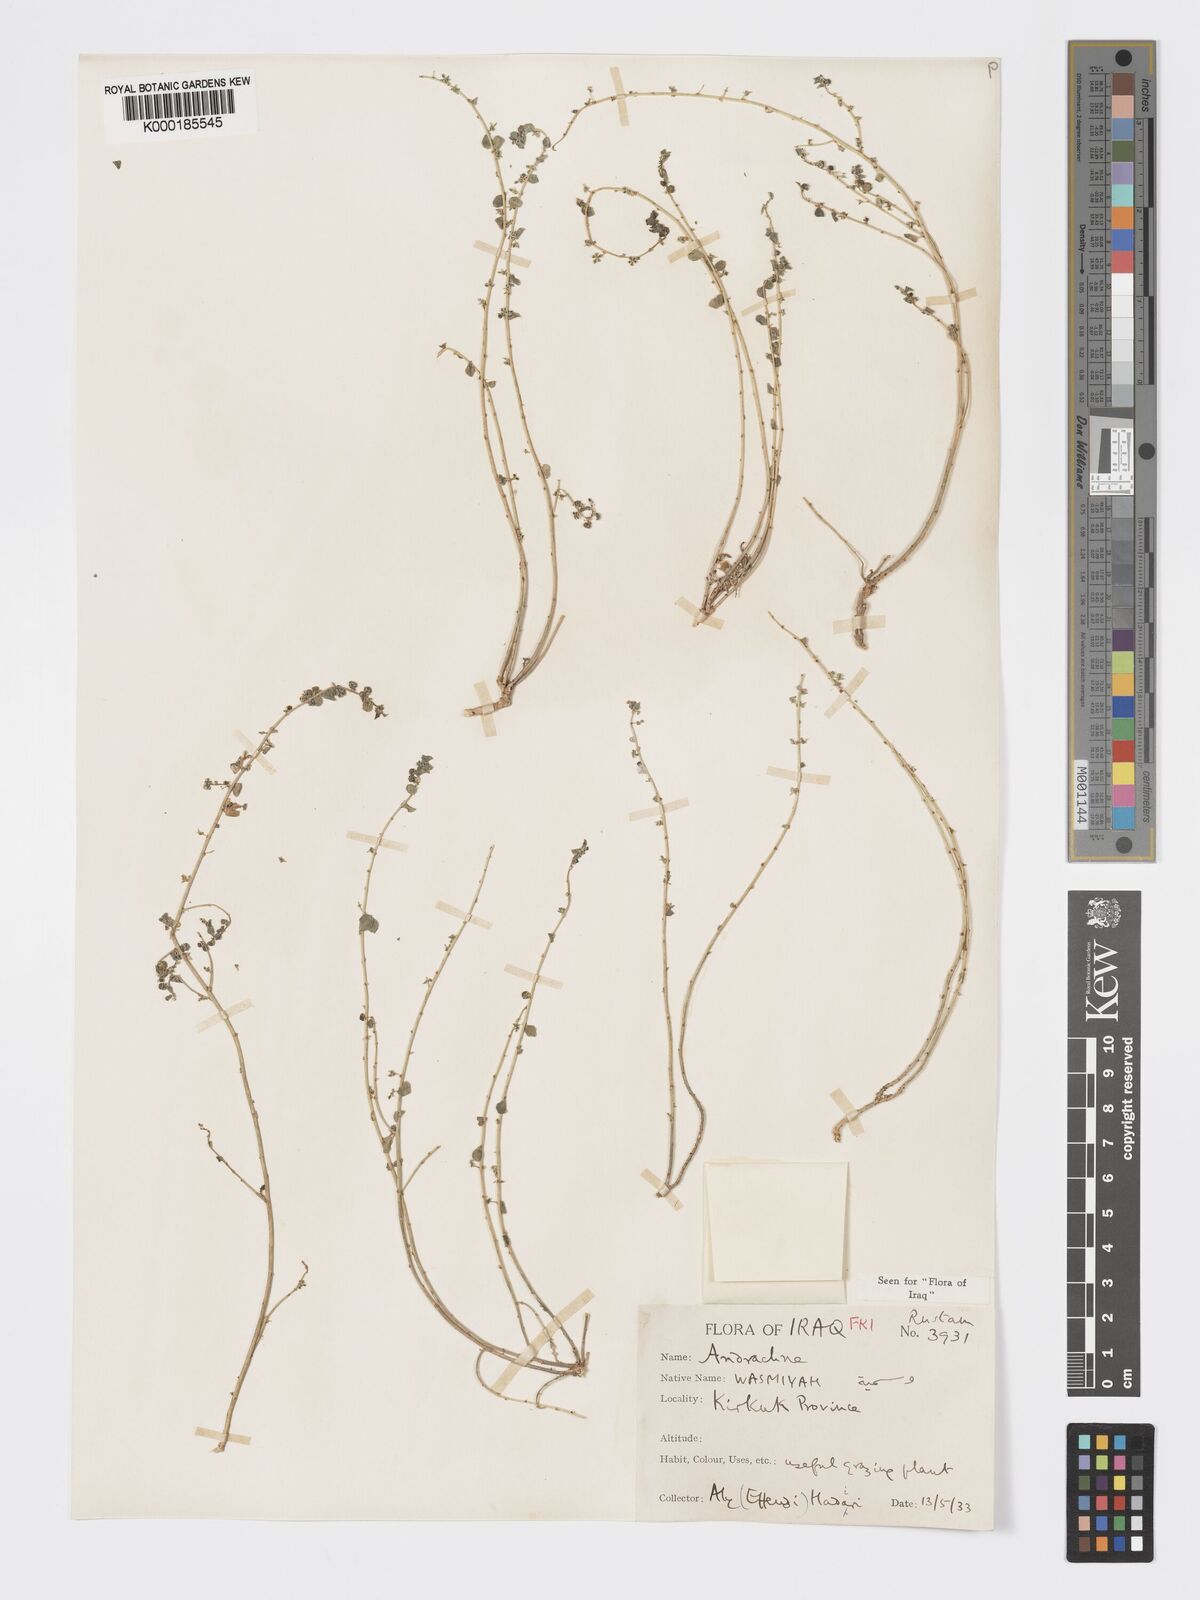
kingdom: Plantae
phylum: Tracheophyta
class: Magnoliopsida
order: Malpighiales
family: Phyllanthaceae
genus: Andrachne
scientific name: Andrachne telephioides
